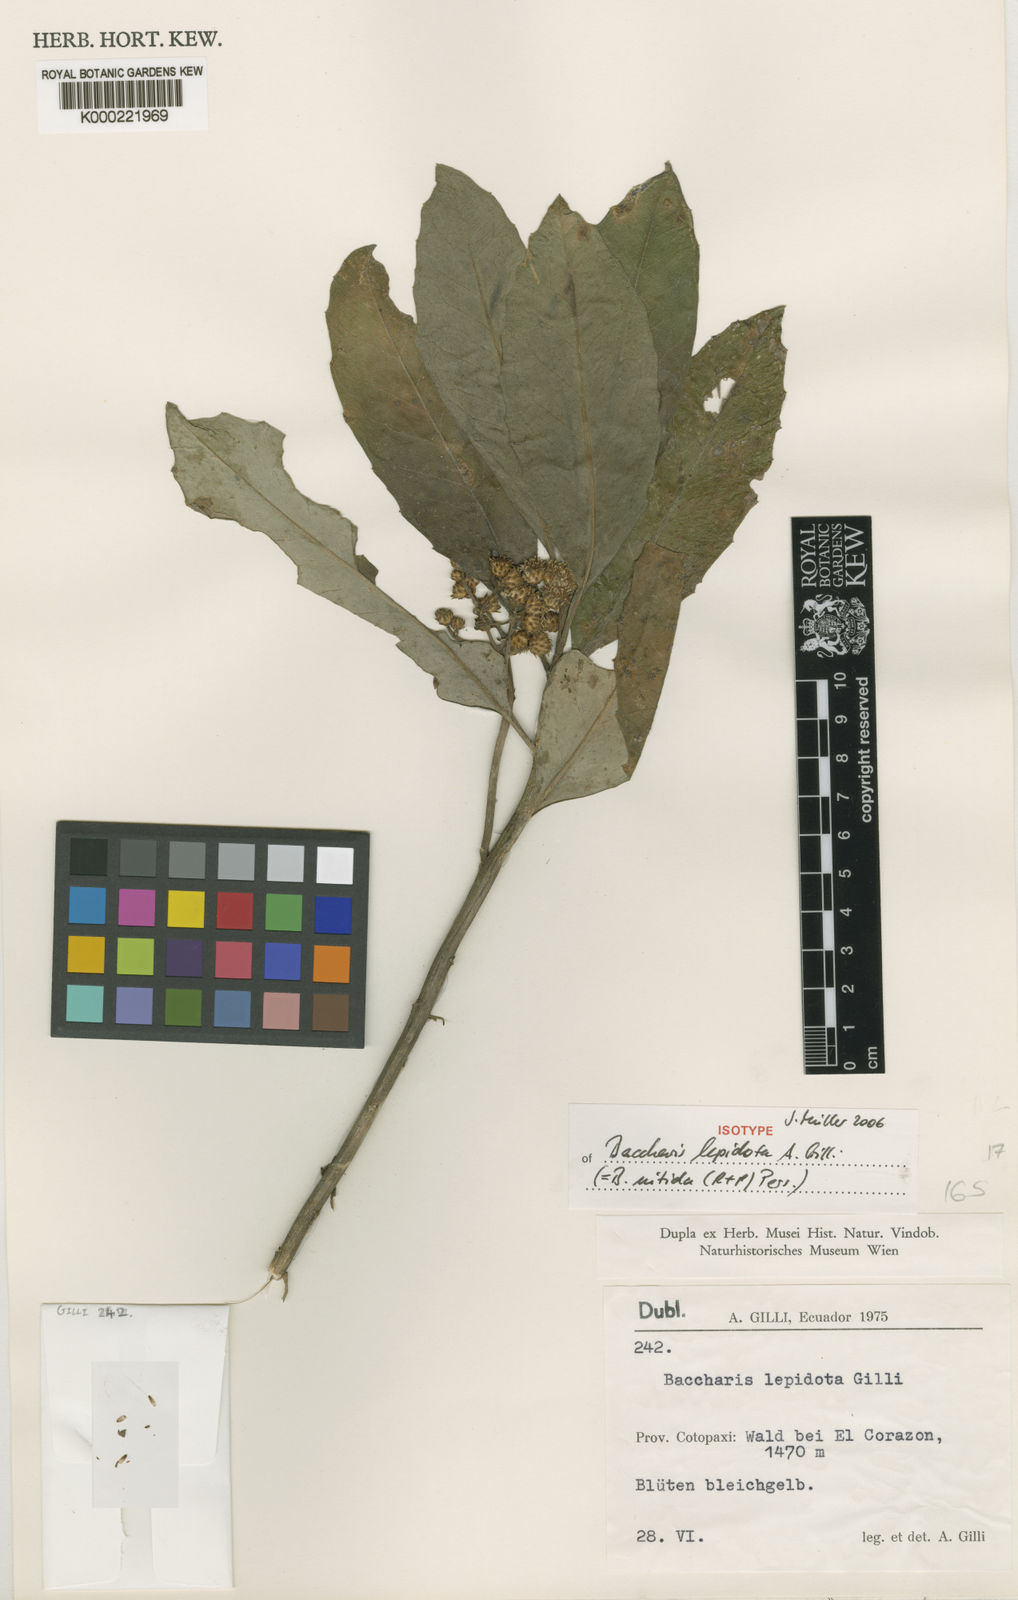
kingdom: Plantae
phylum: Tracheophyta
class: Magnoliopsida
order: Asterales
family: Asteraceae
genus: Baccharis
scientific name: Baccharis nitida
